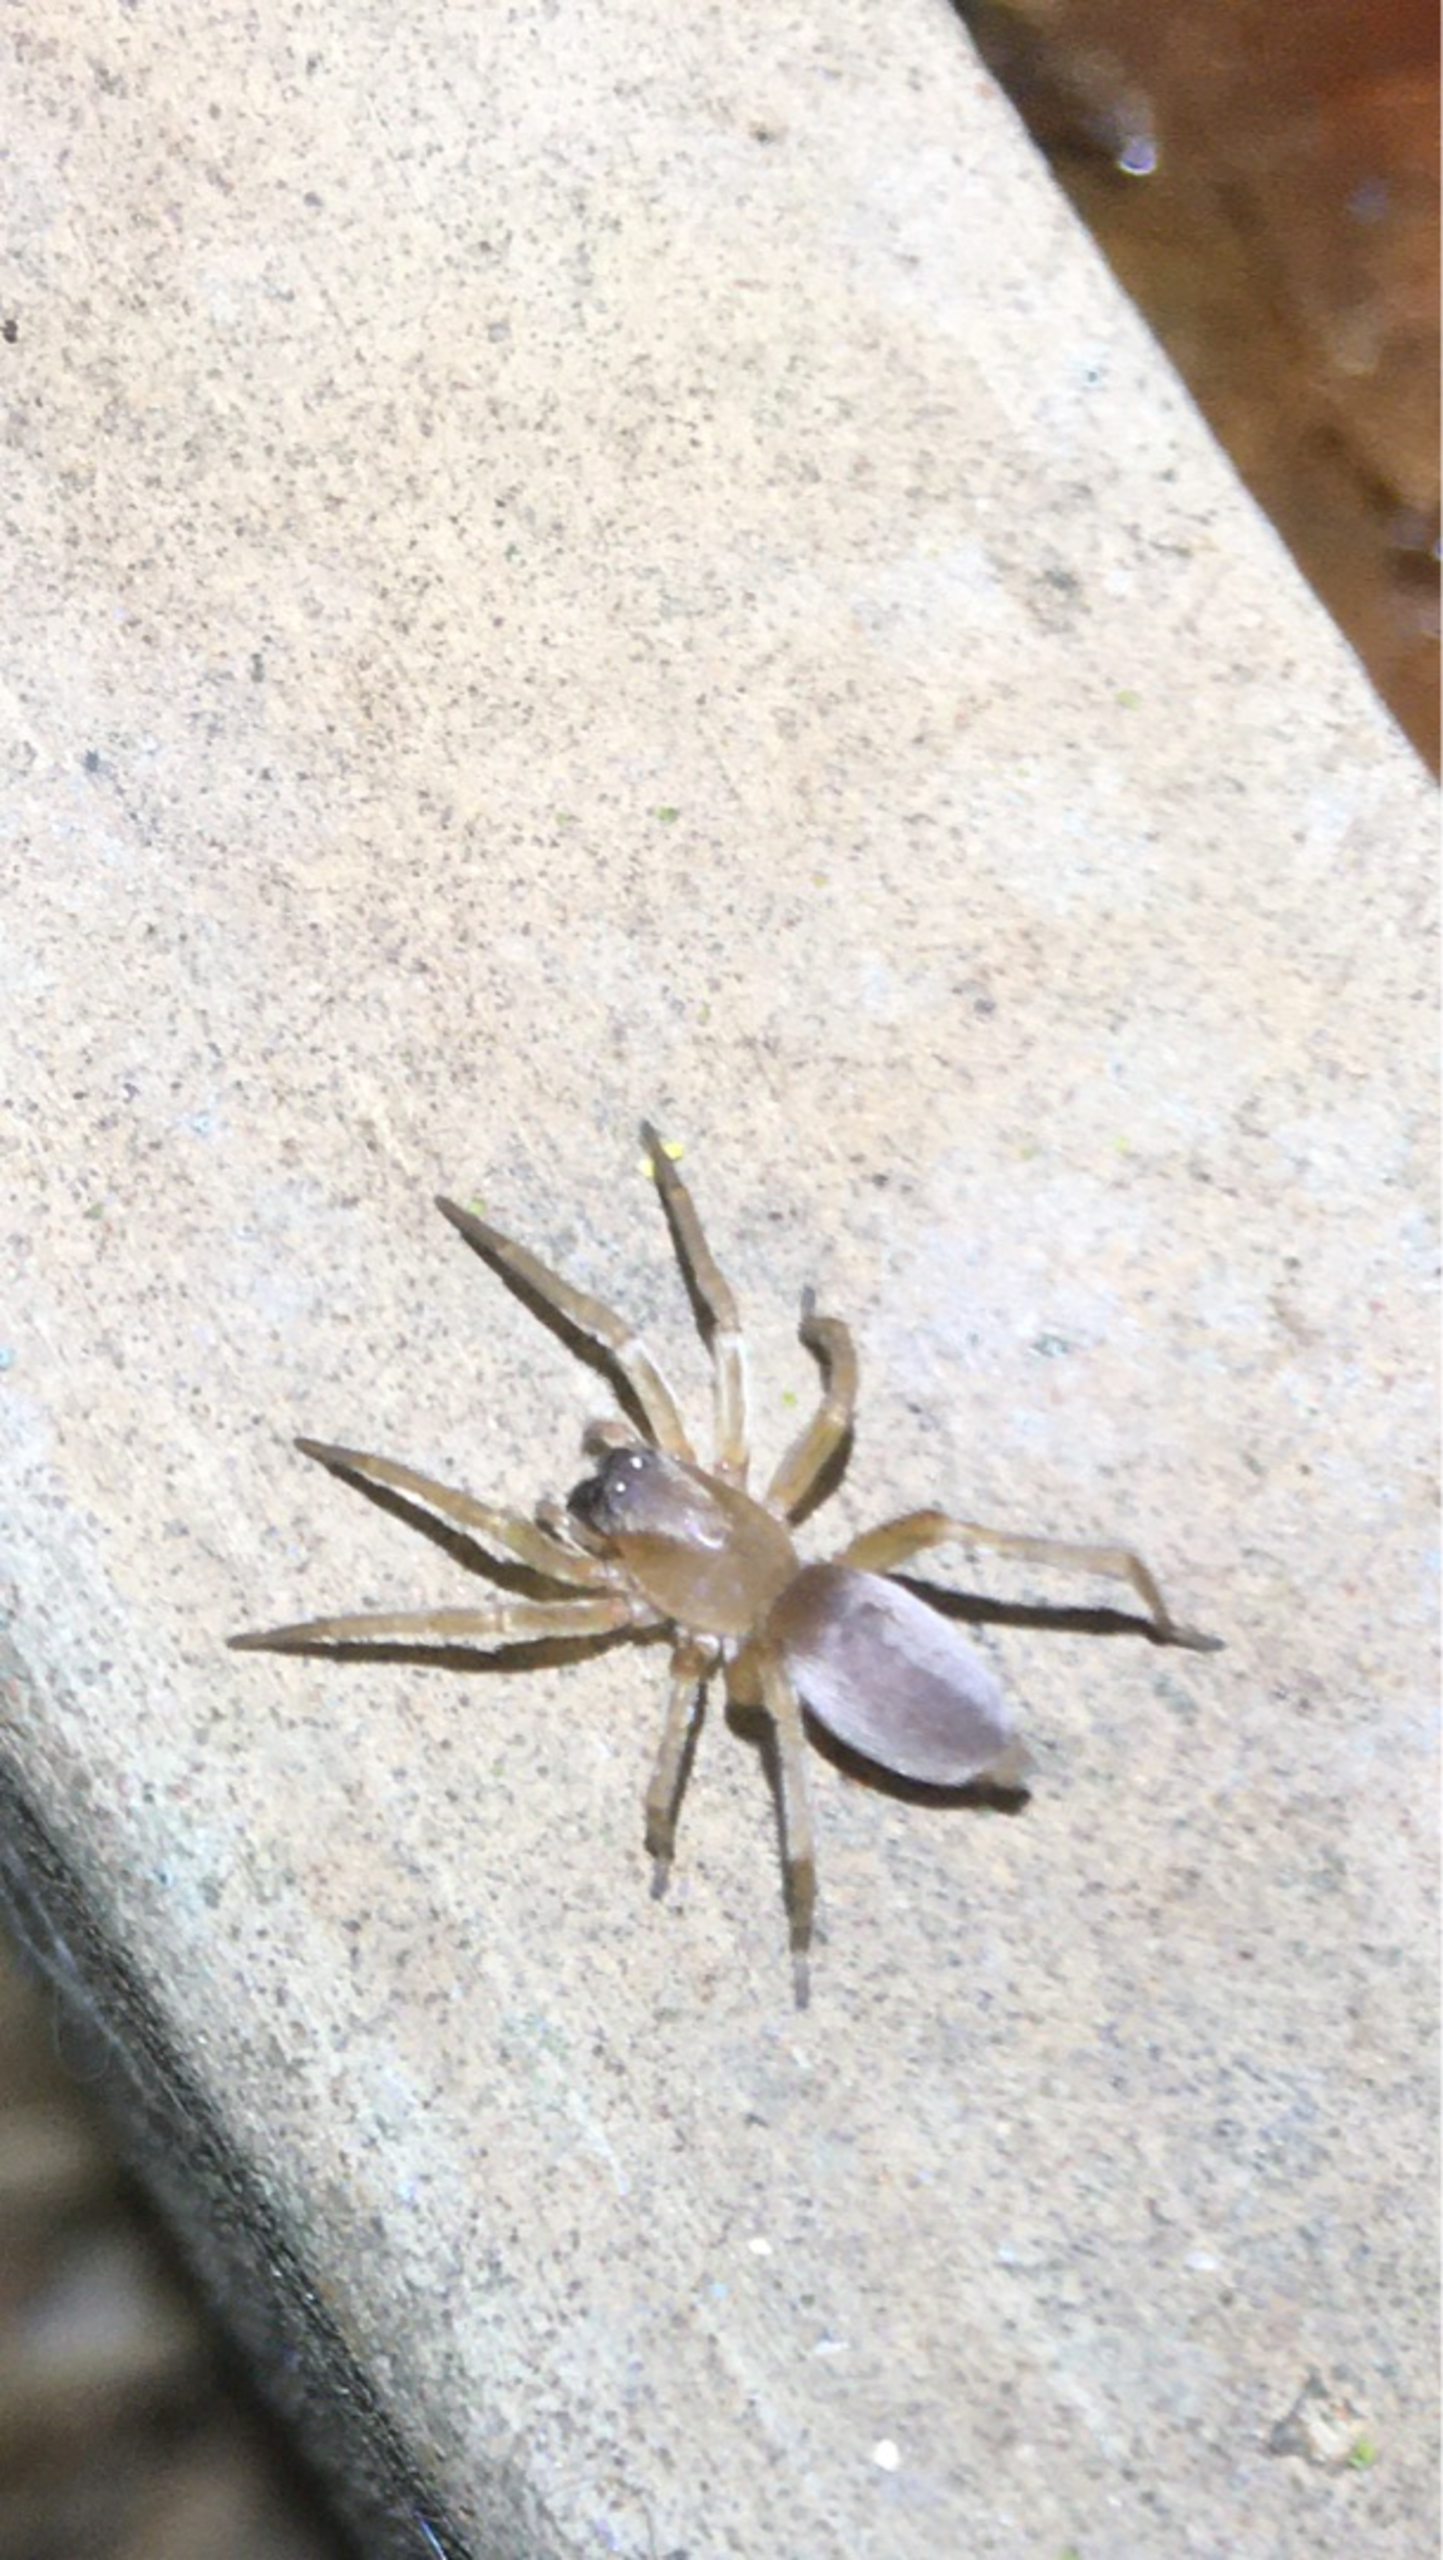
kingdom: Animalia
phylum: Arthropoda
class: Arachnida
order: Araneae
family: Clubionidae
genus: Clubiona
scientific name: Clubiona
